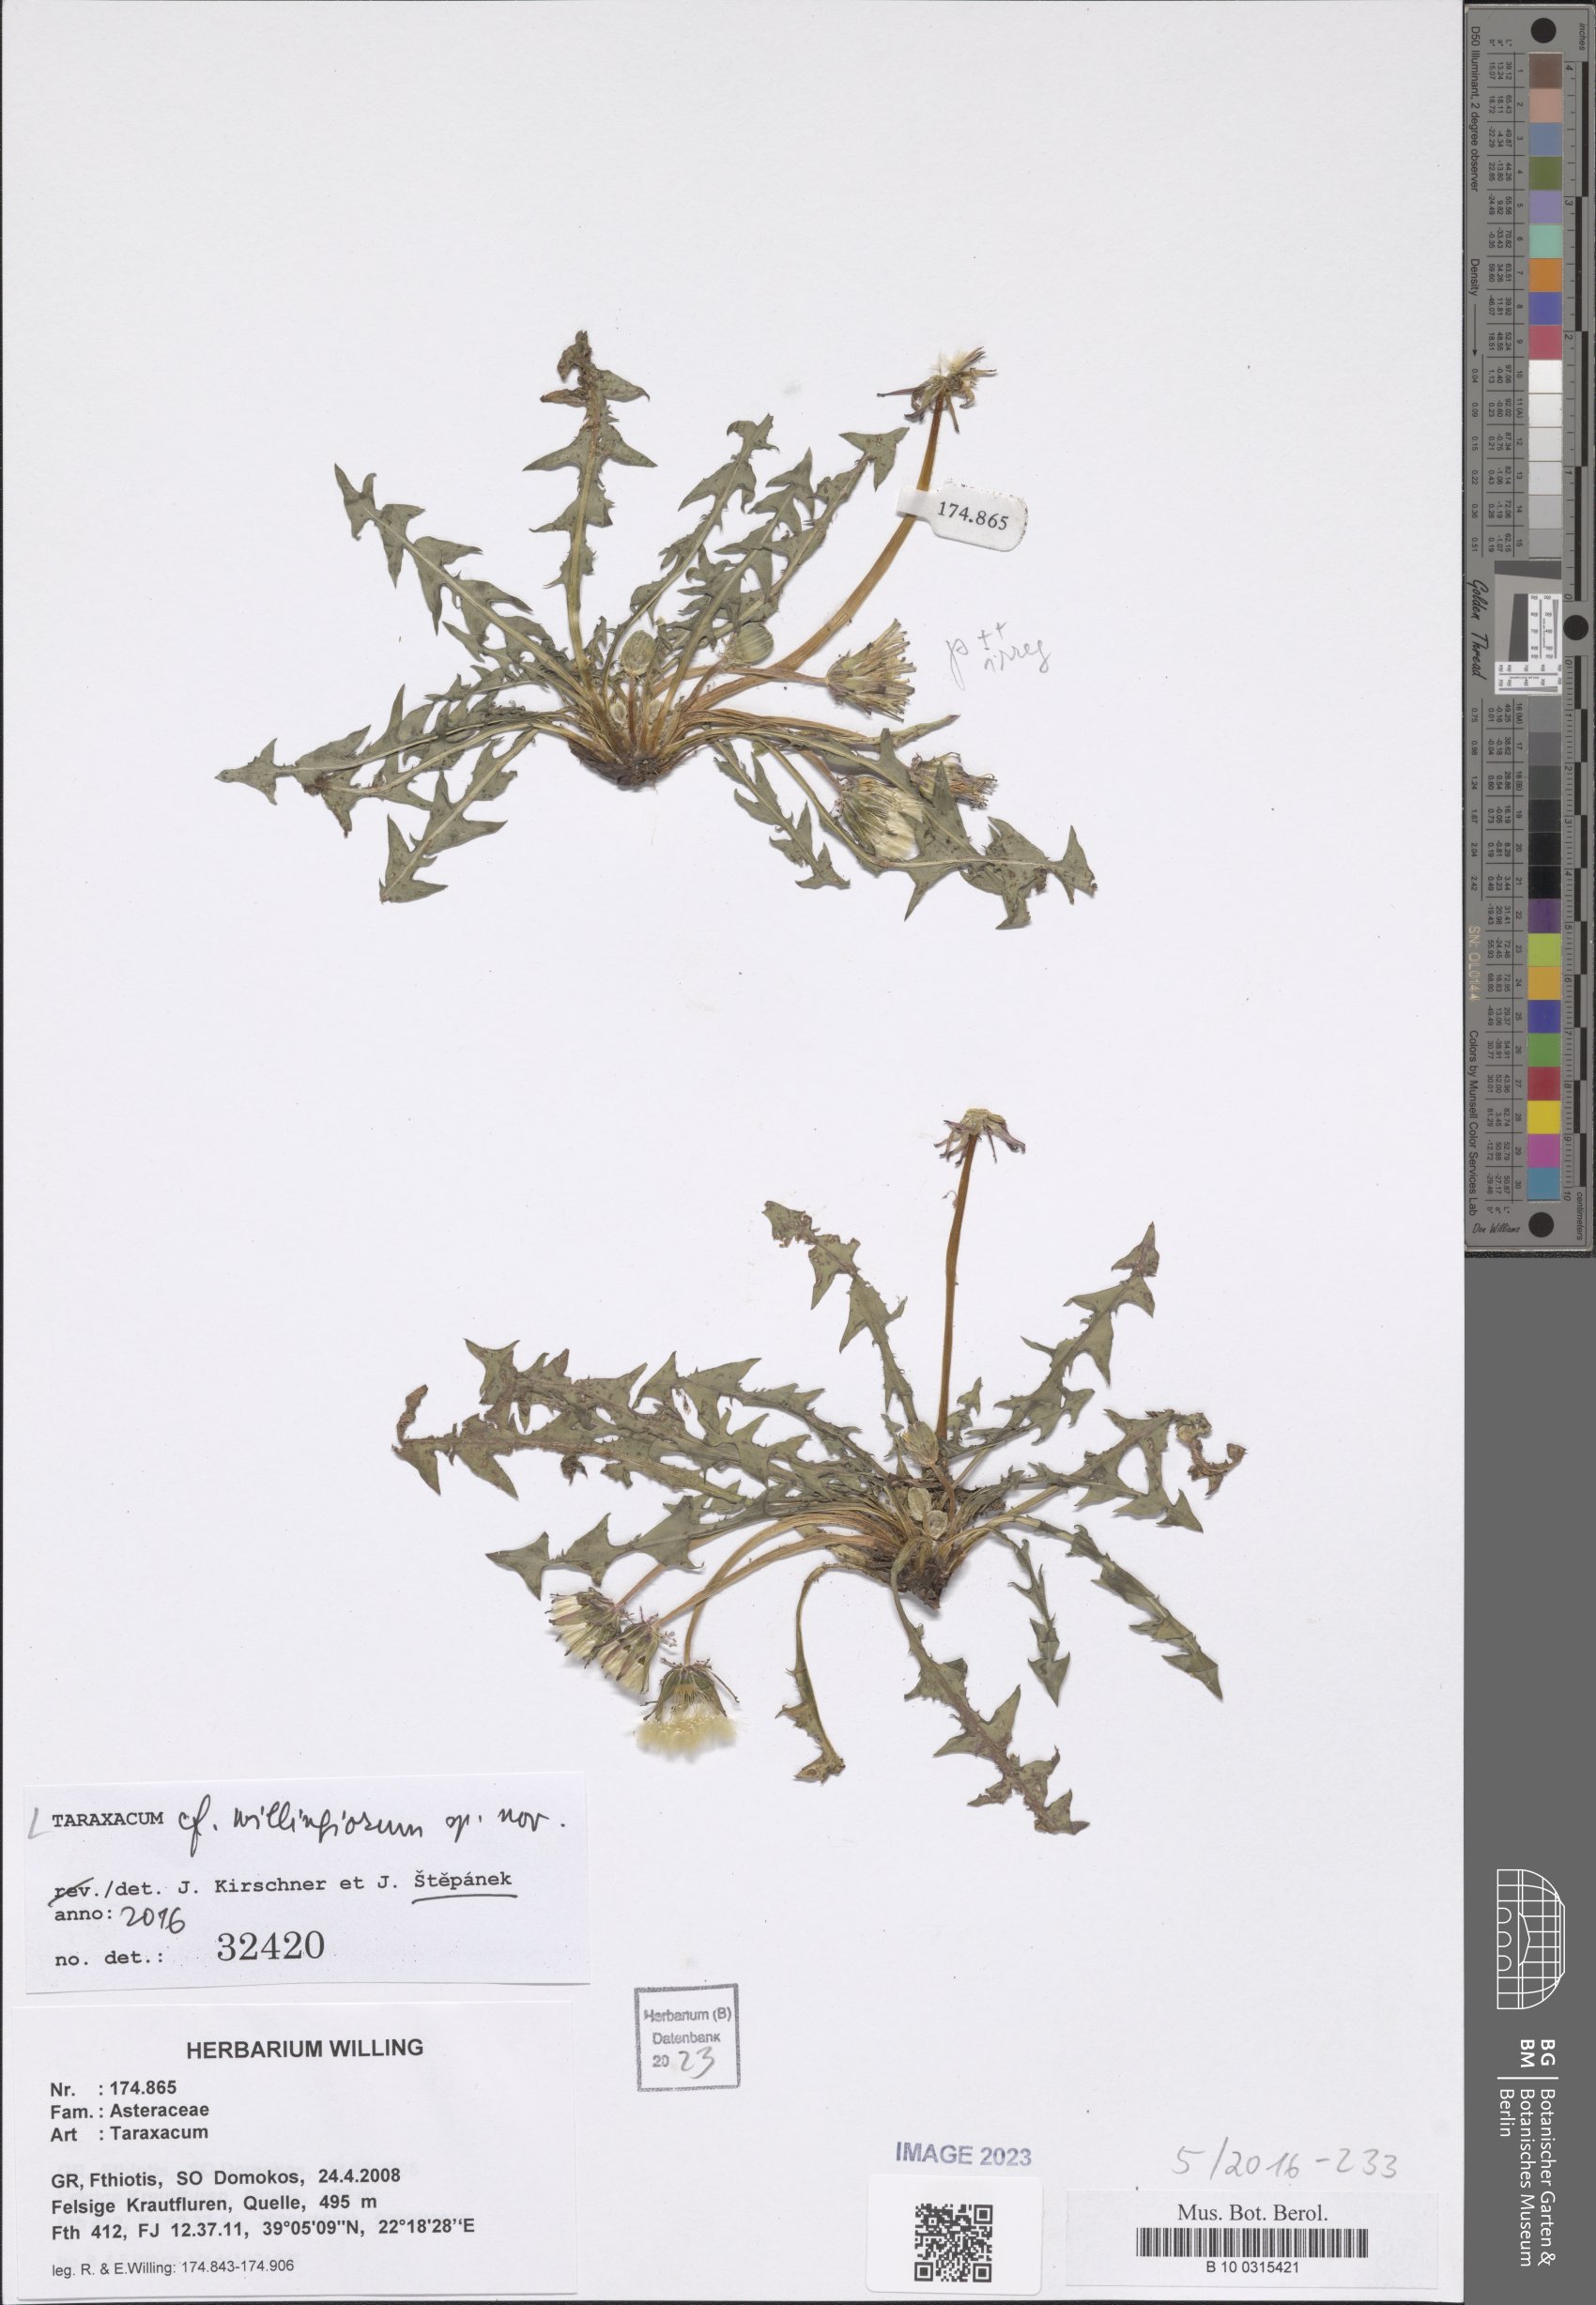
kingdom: Plantae
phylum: Tracheophyta
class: Magnoliopsida
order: Asterales
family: Asteraceae
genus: Taraxacum
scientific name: Taraxacum
